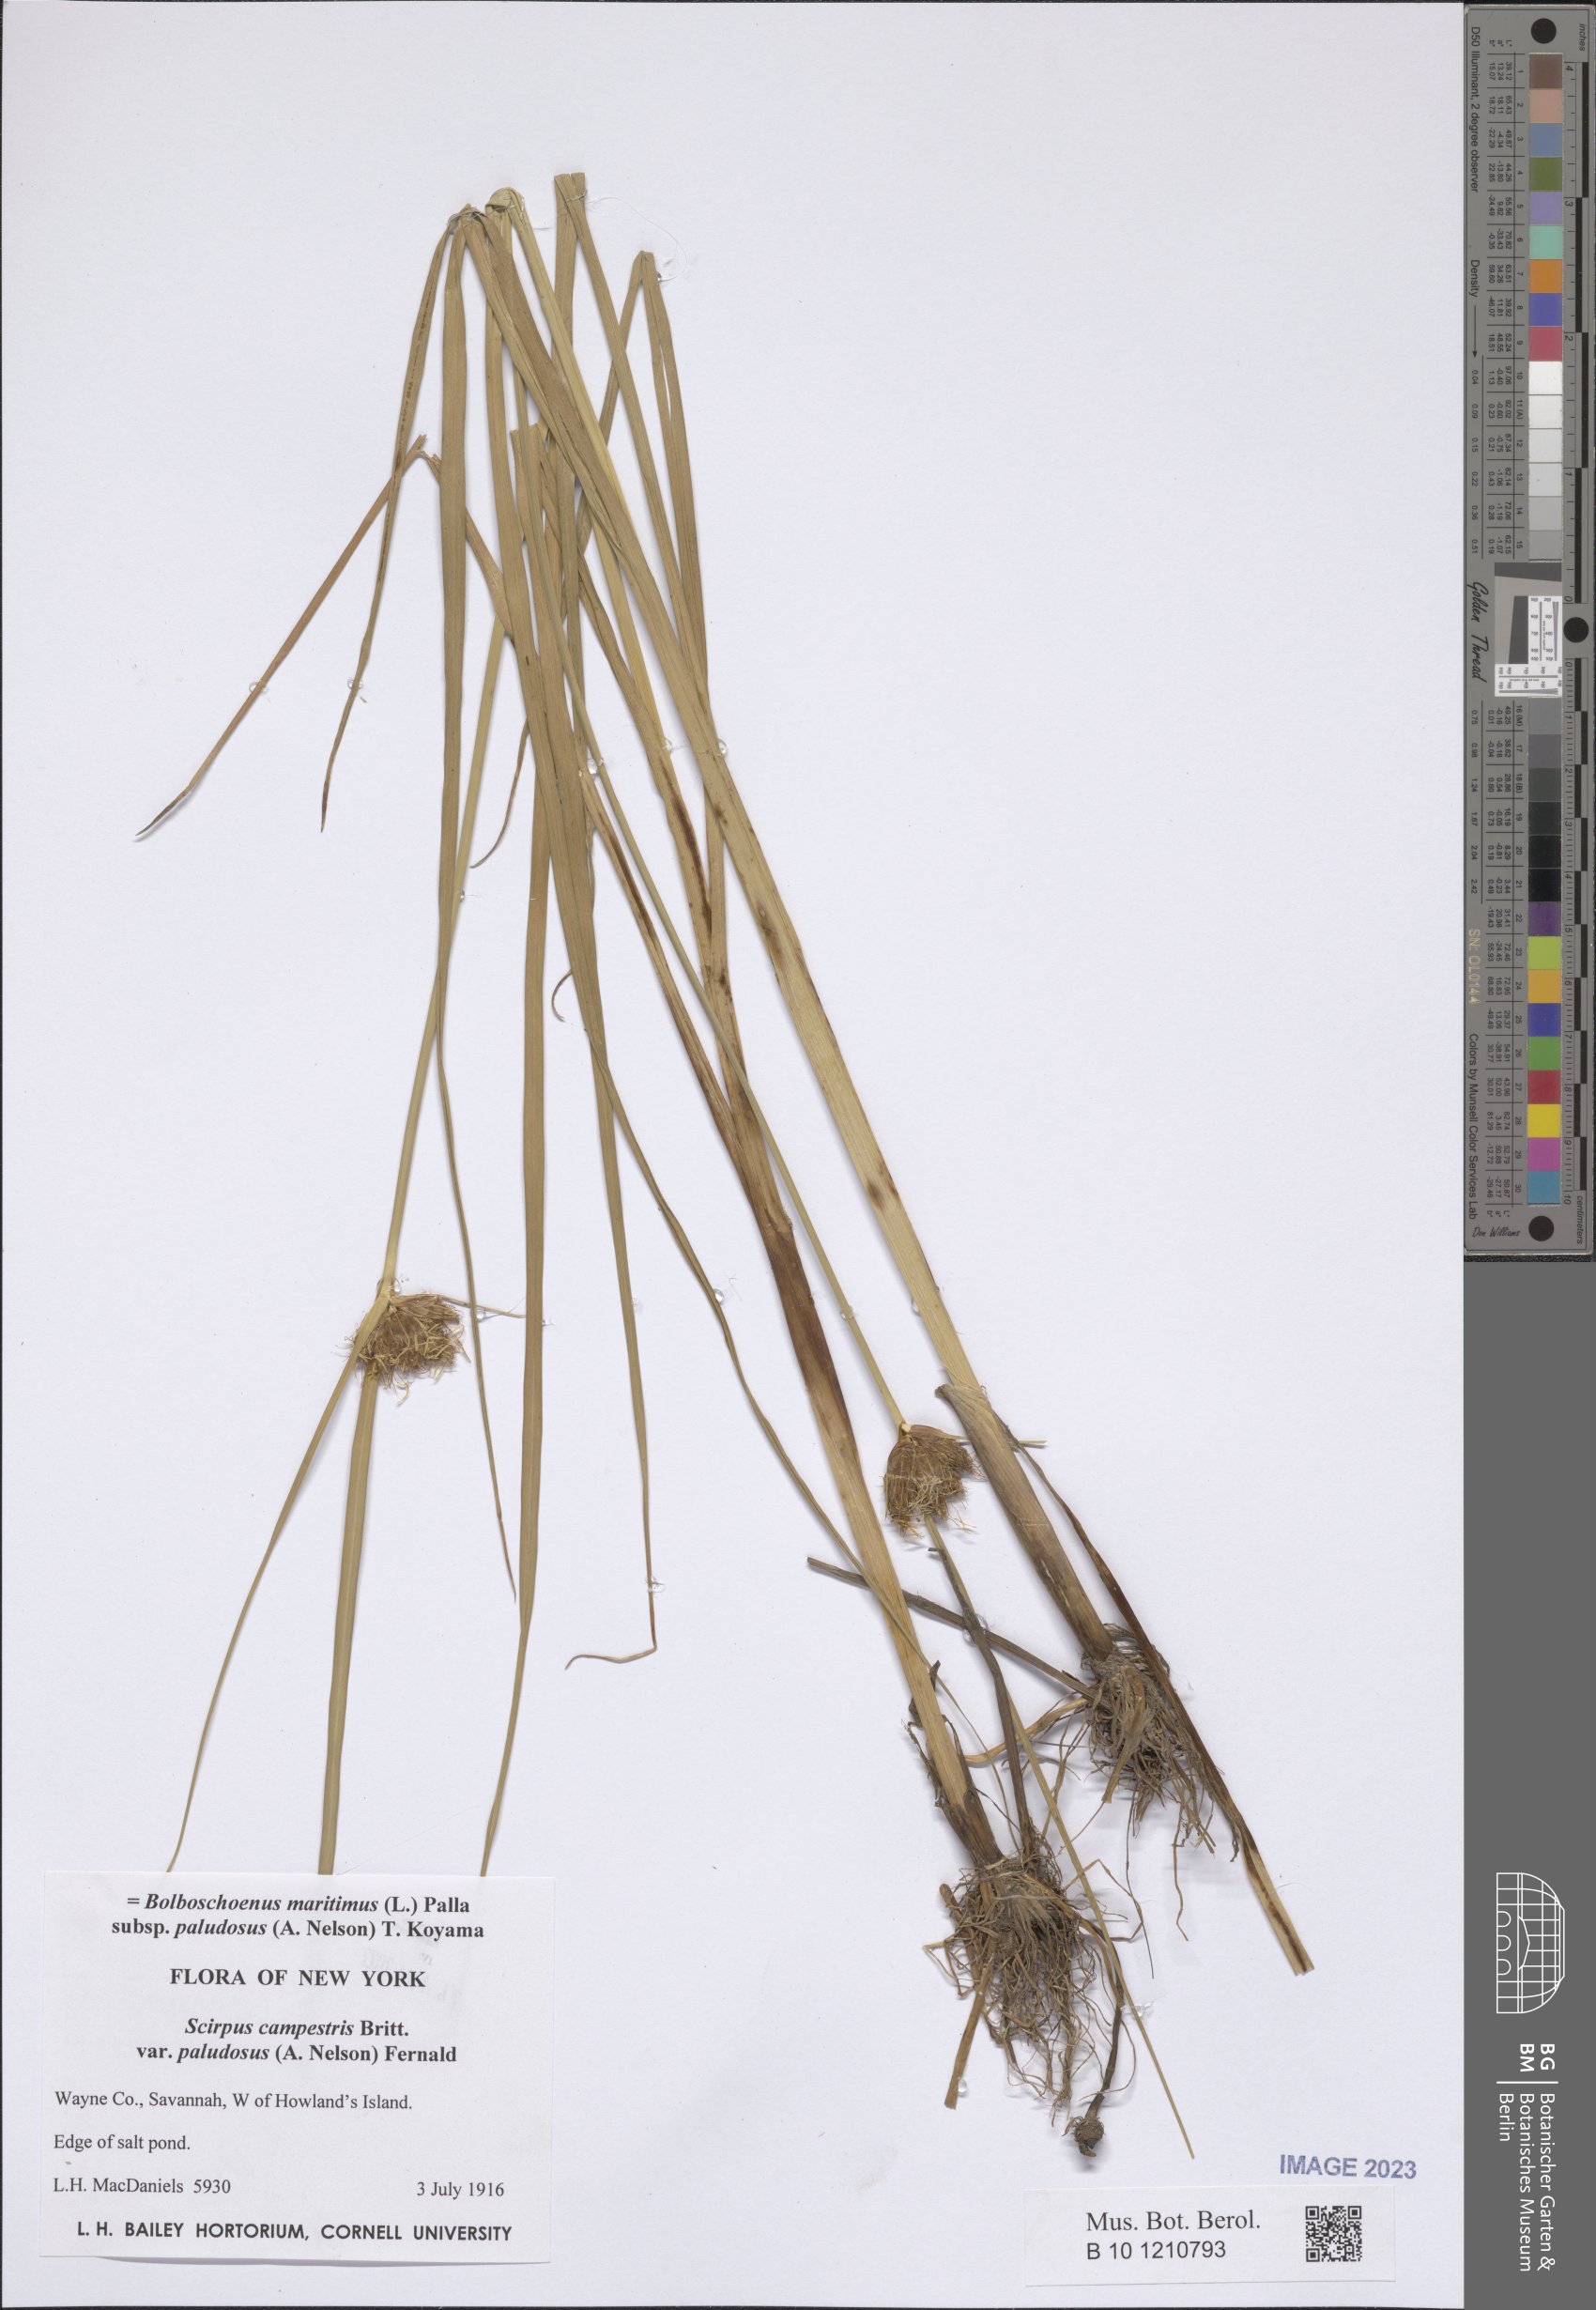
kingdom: Plantae
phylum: Tracheophyta
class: Liliopsida
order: Poales
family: Cyperaceae
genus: Bolboschoenus
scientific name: Bolboschoenus maritimus
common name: Sea club-rush
